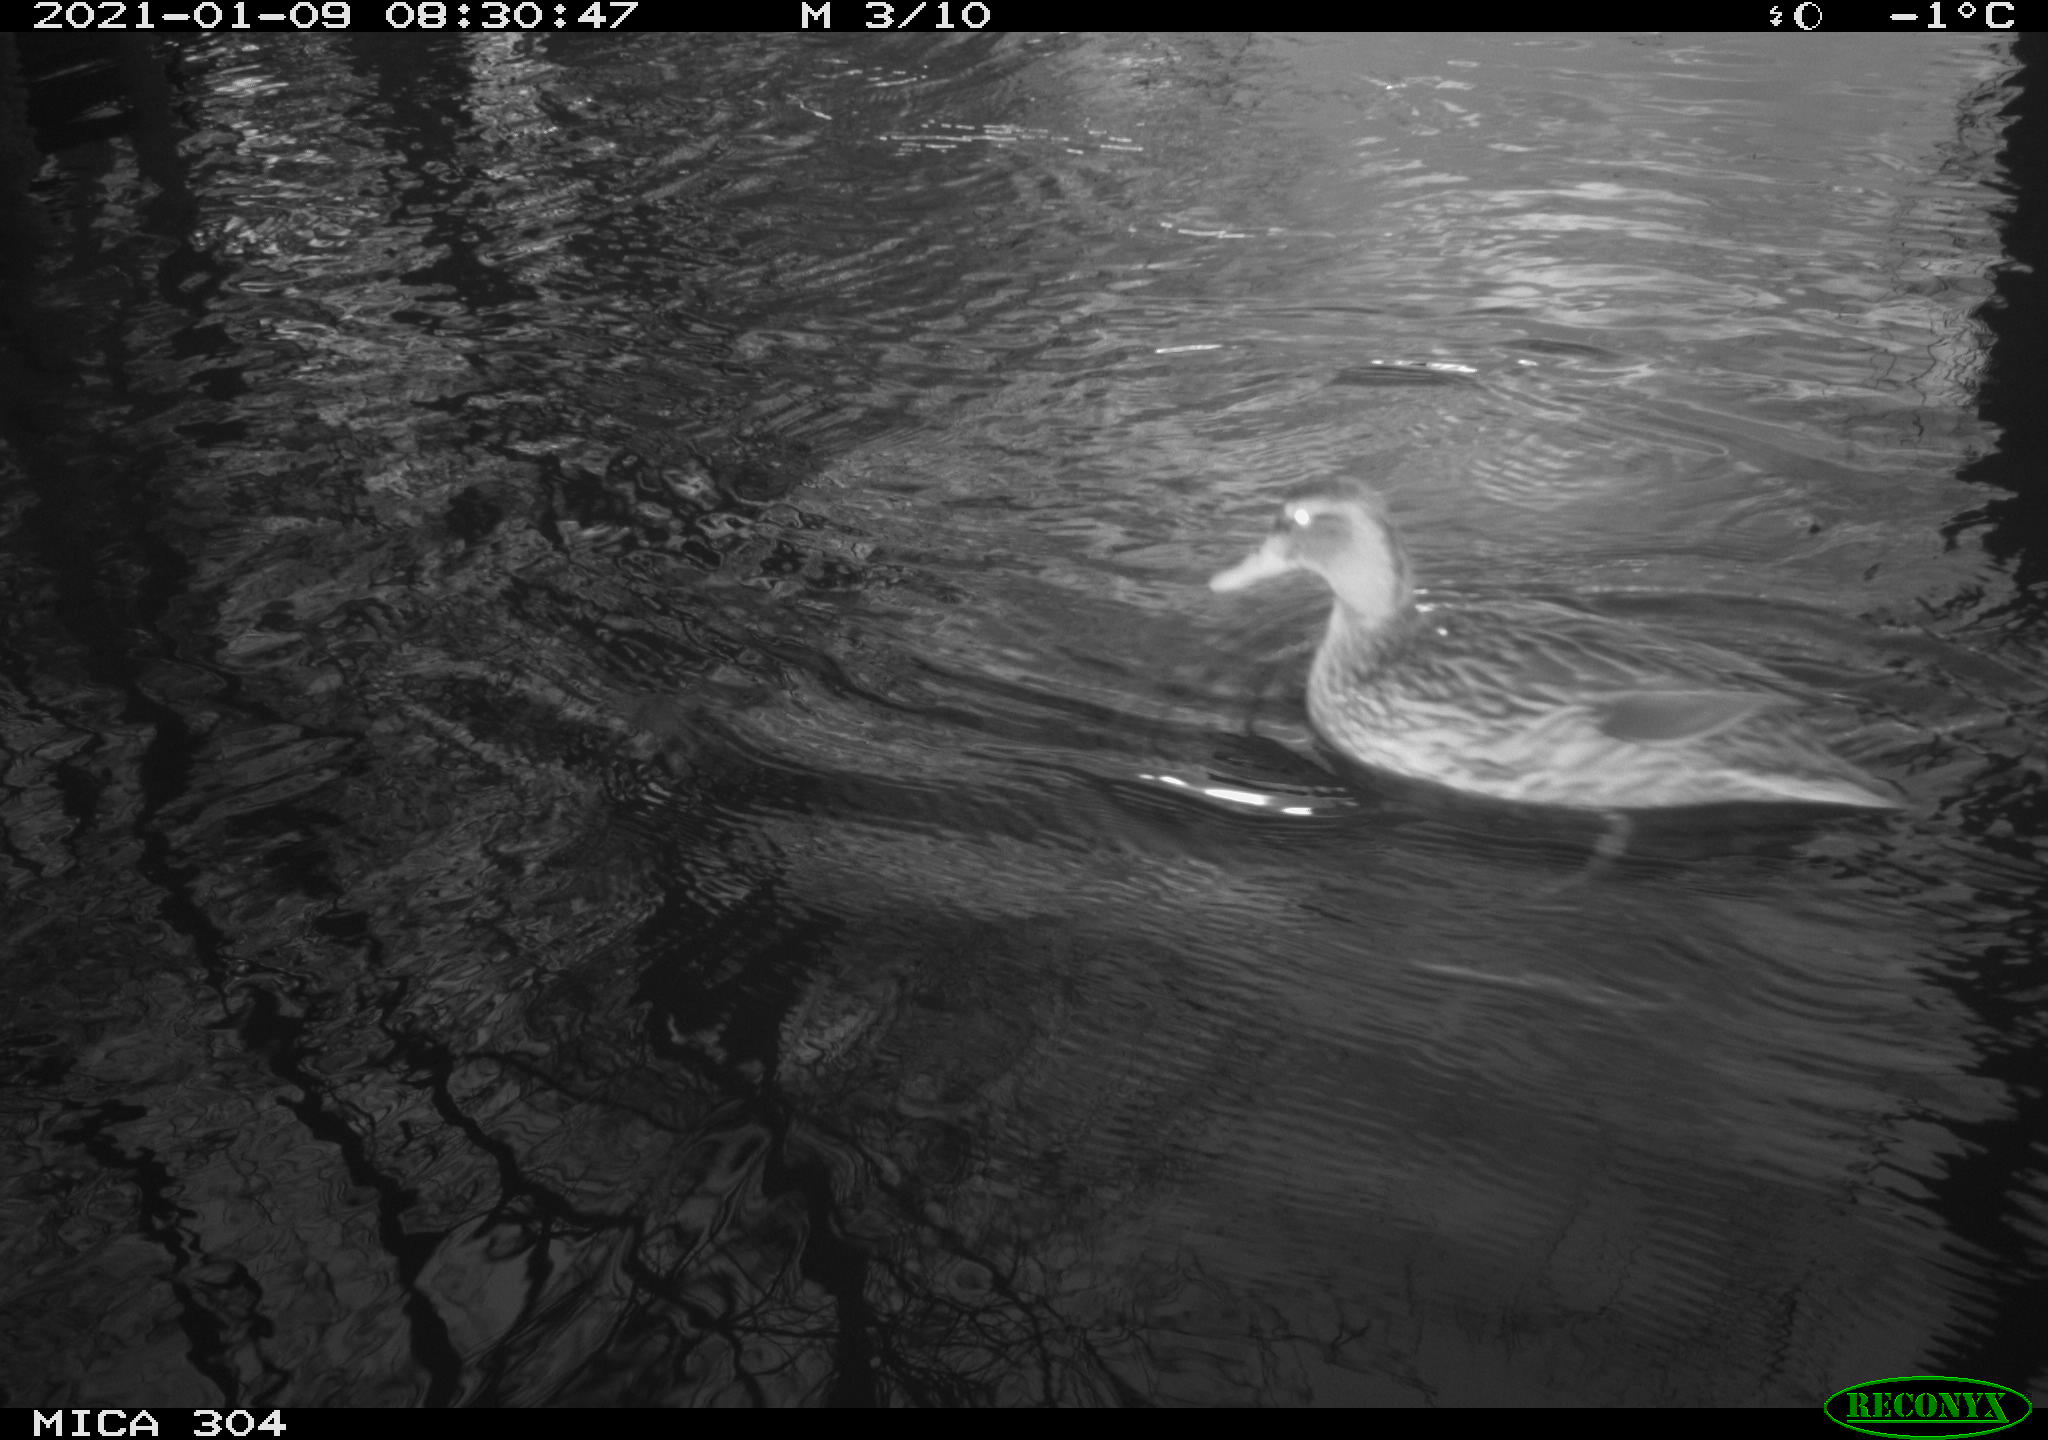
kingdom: Animalia
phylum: Chordata
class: Aves
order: Anseriformes
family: Anatidae
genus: Anas
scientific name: Anas platyrhynchos
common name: Mallard
